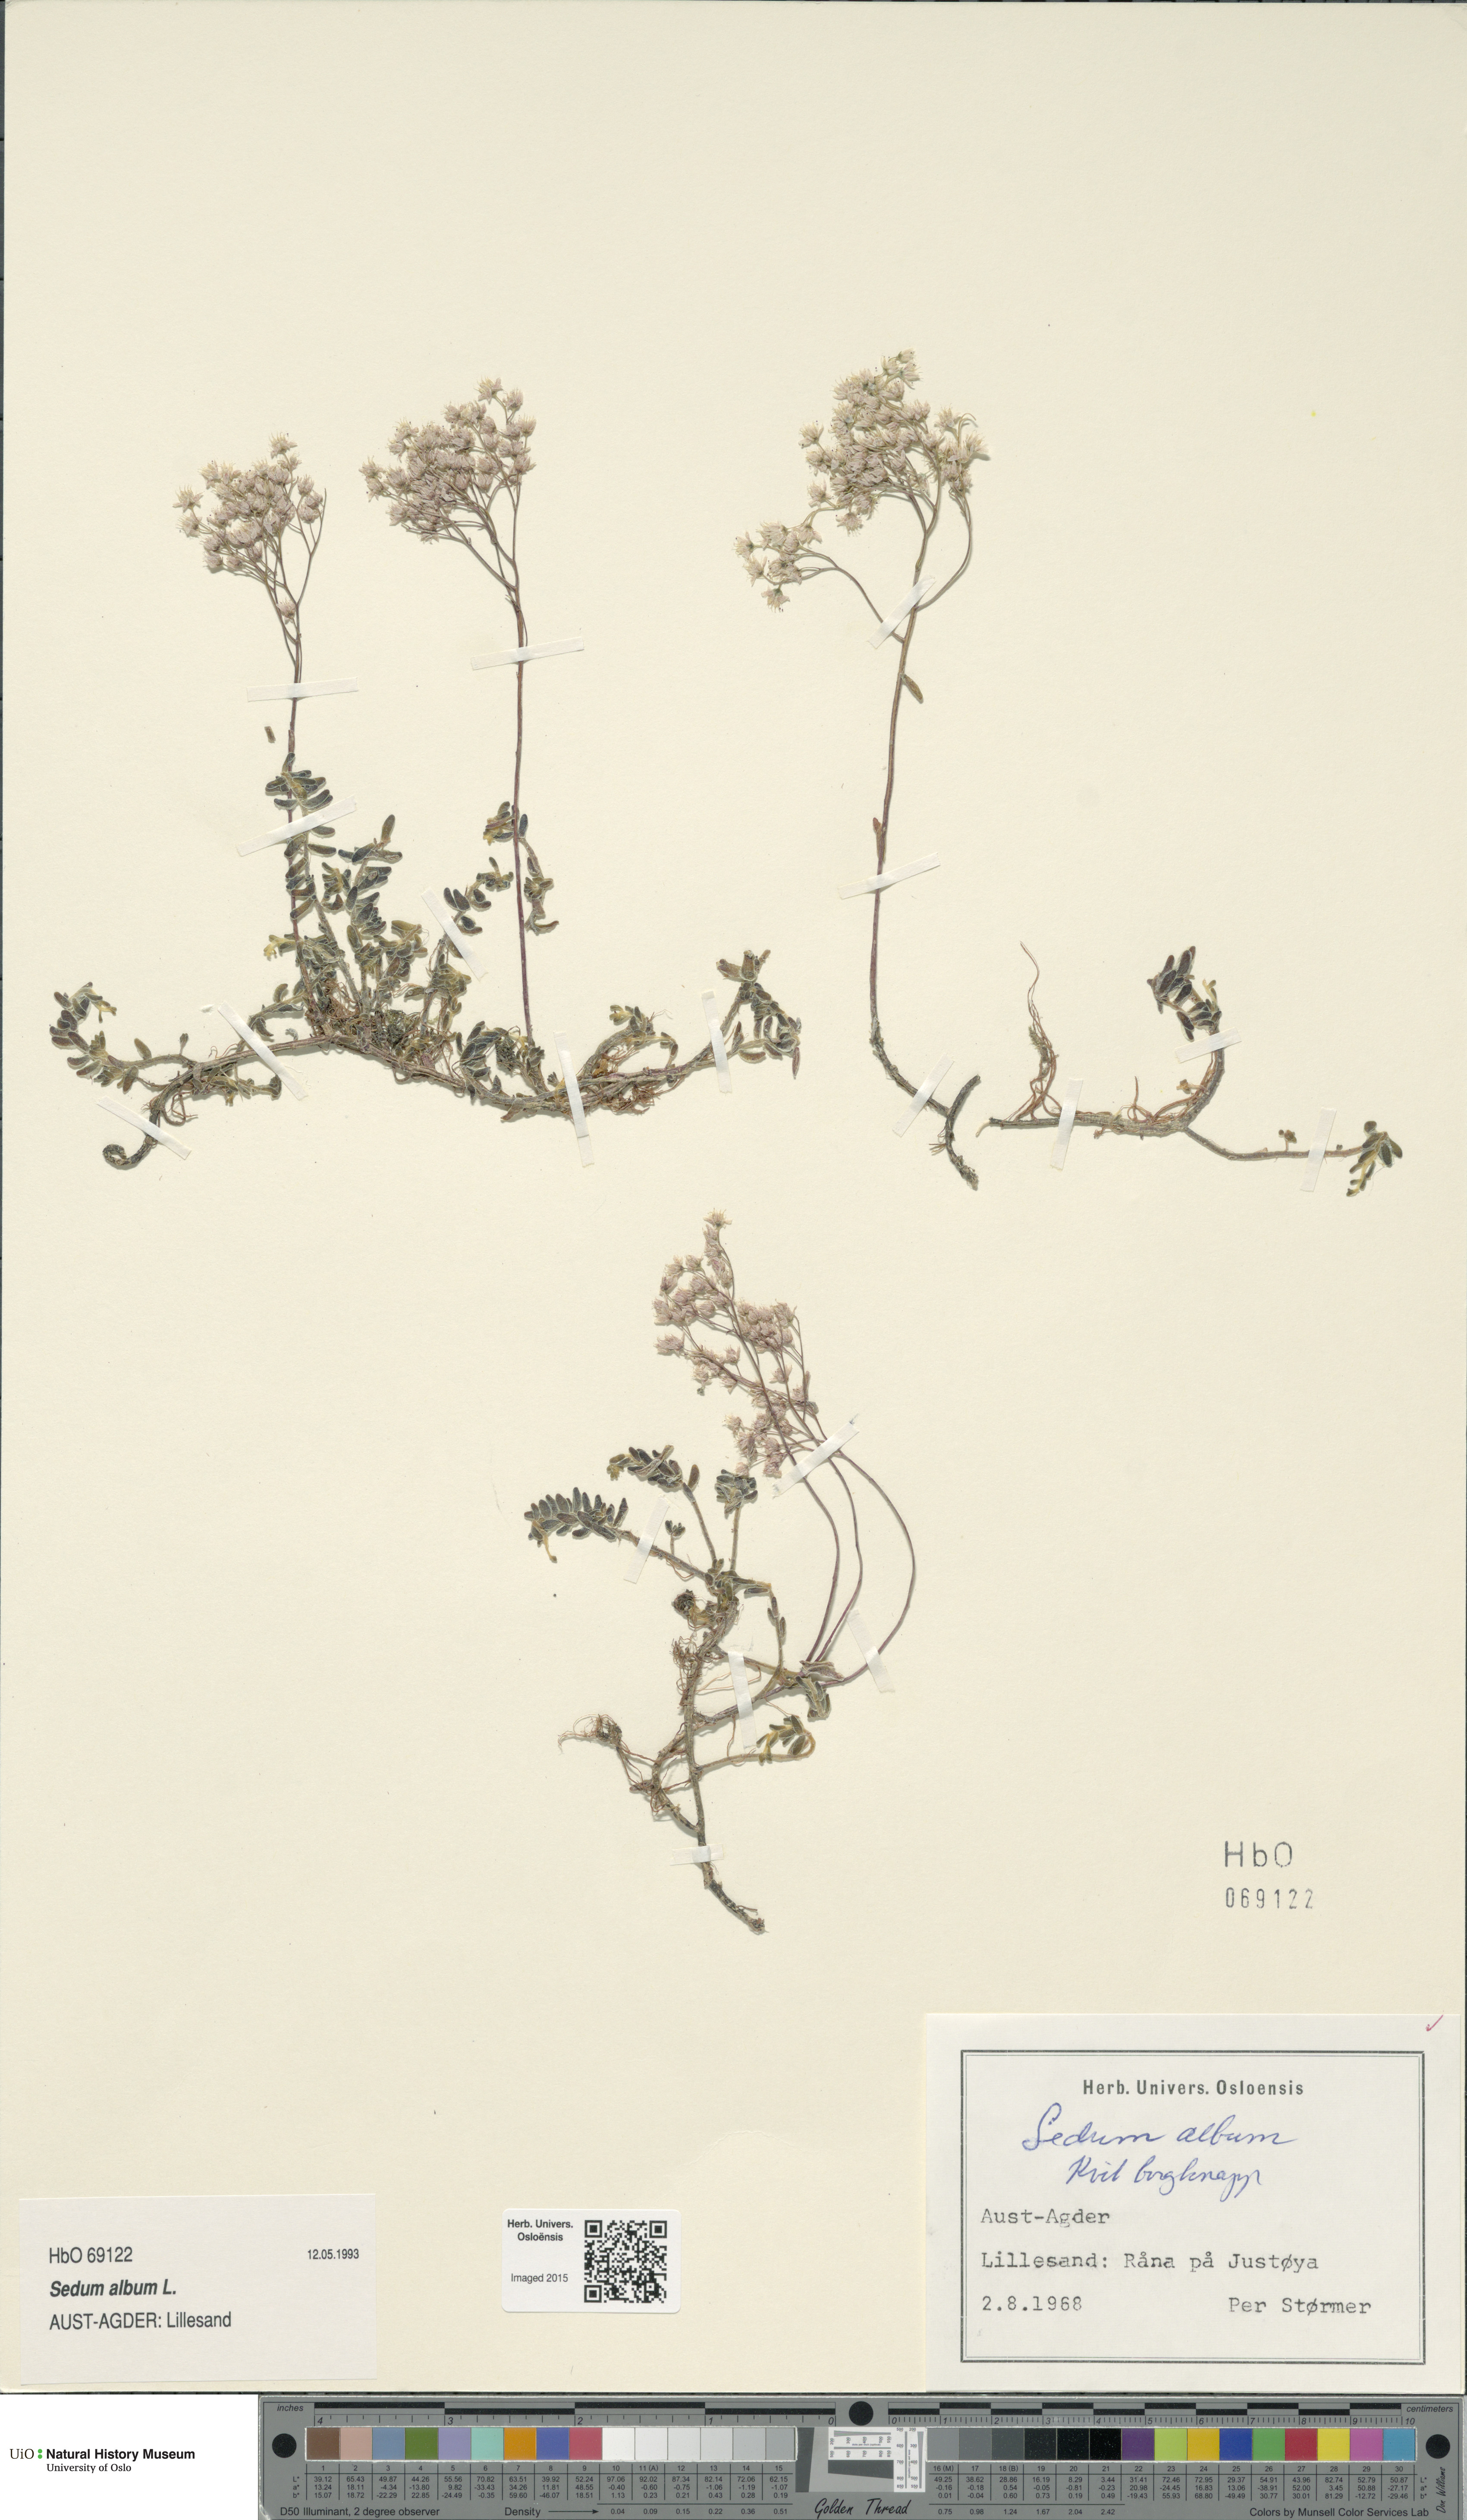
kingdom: Plantae
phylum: Tracheophyta
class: Magnoliopsida
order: Saxifragales
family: Crassulaceae
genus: Sedum
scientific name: Sedum album
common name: White stonecrop
